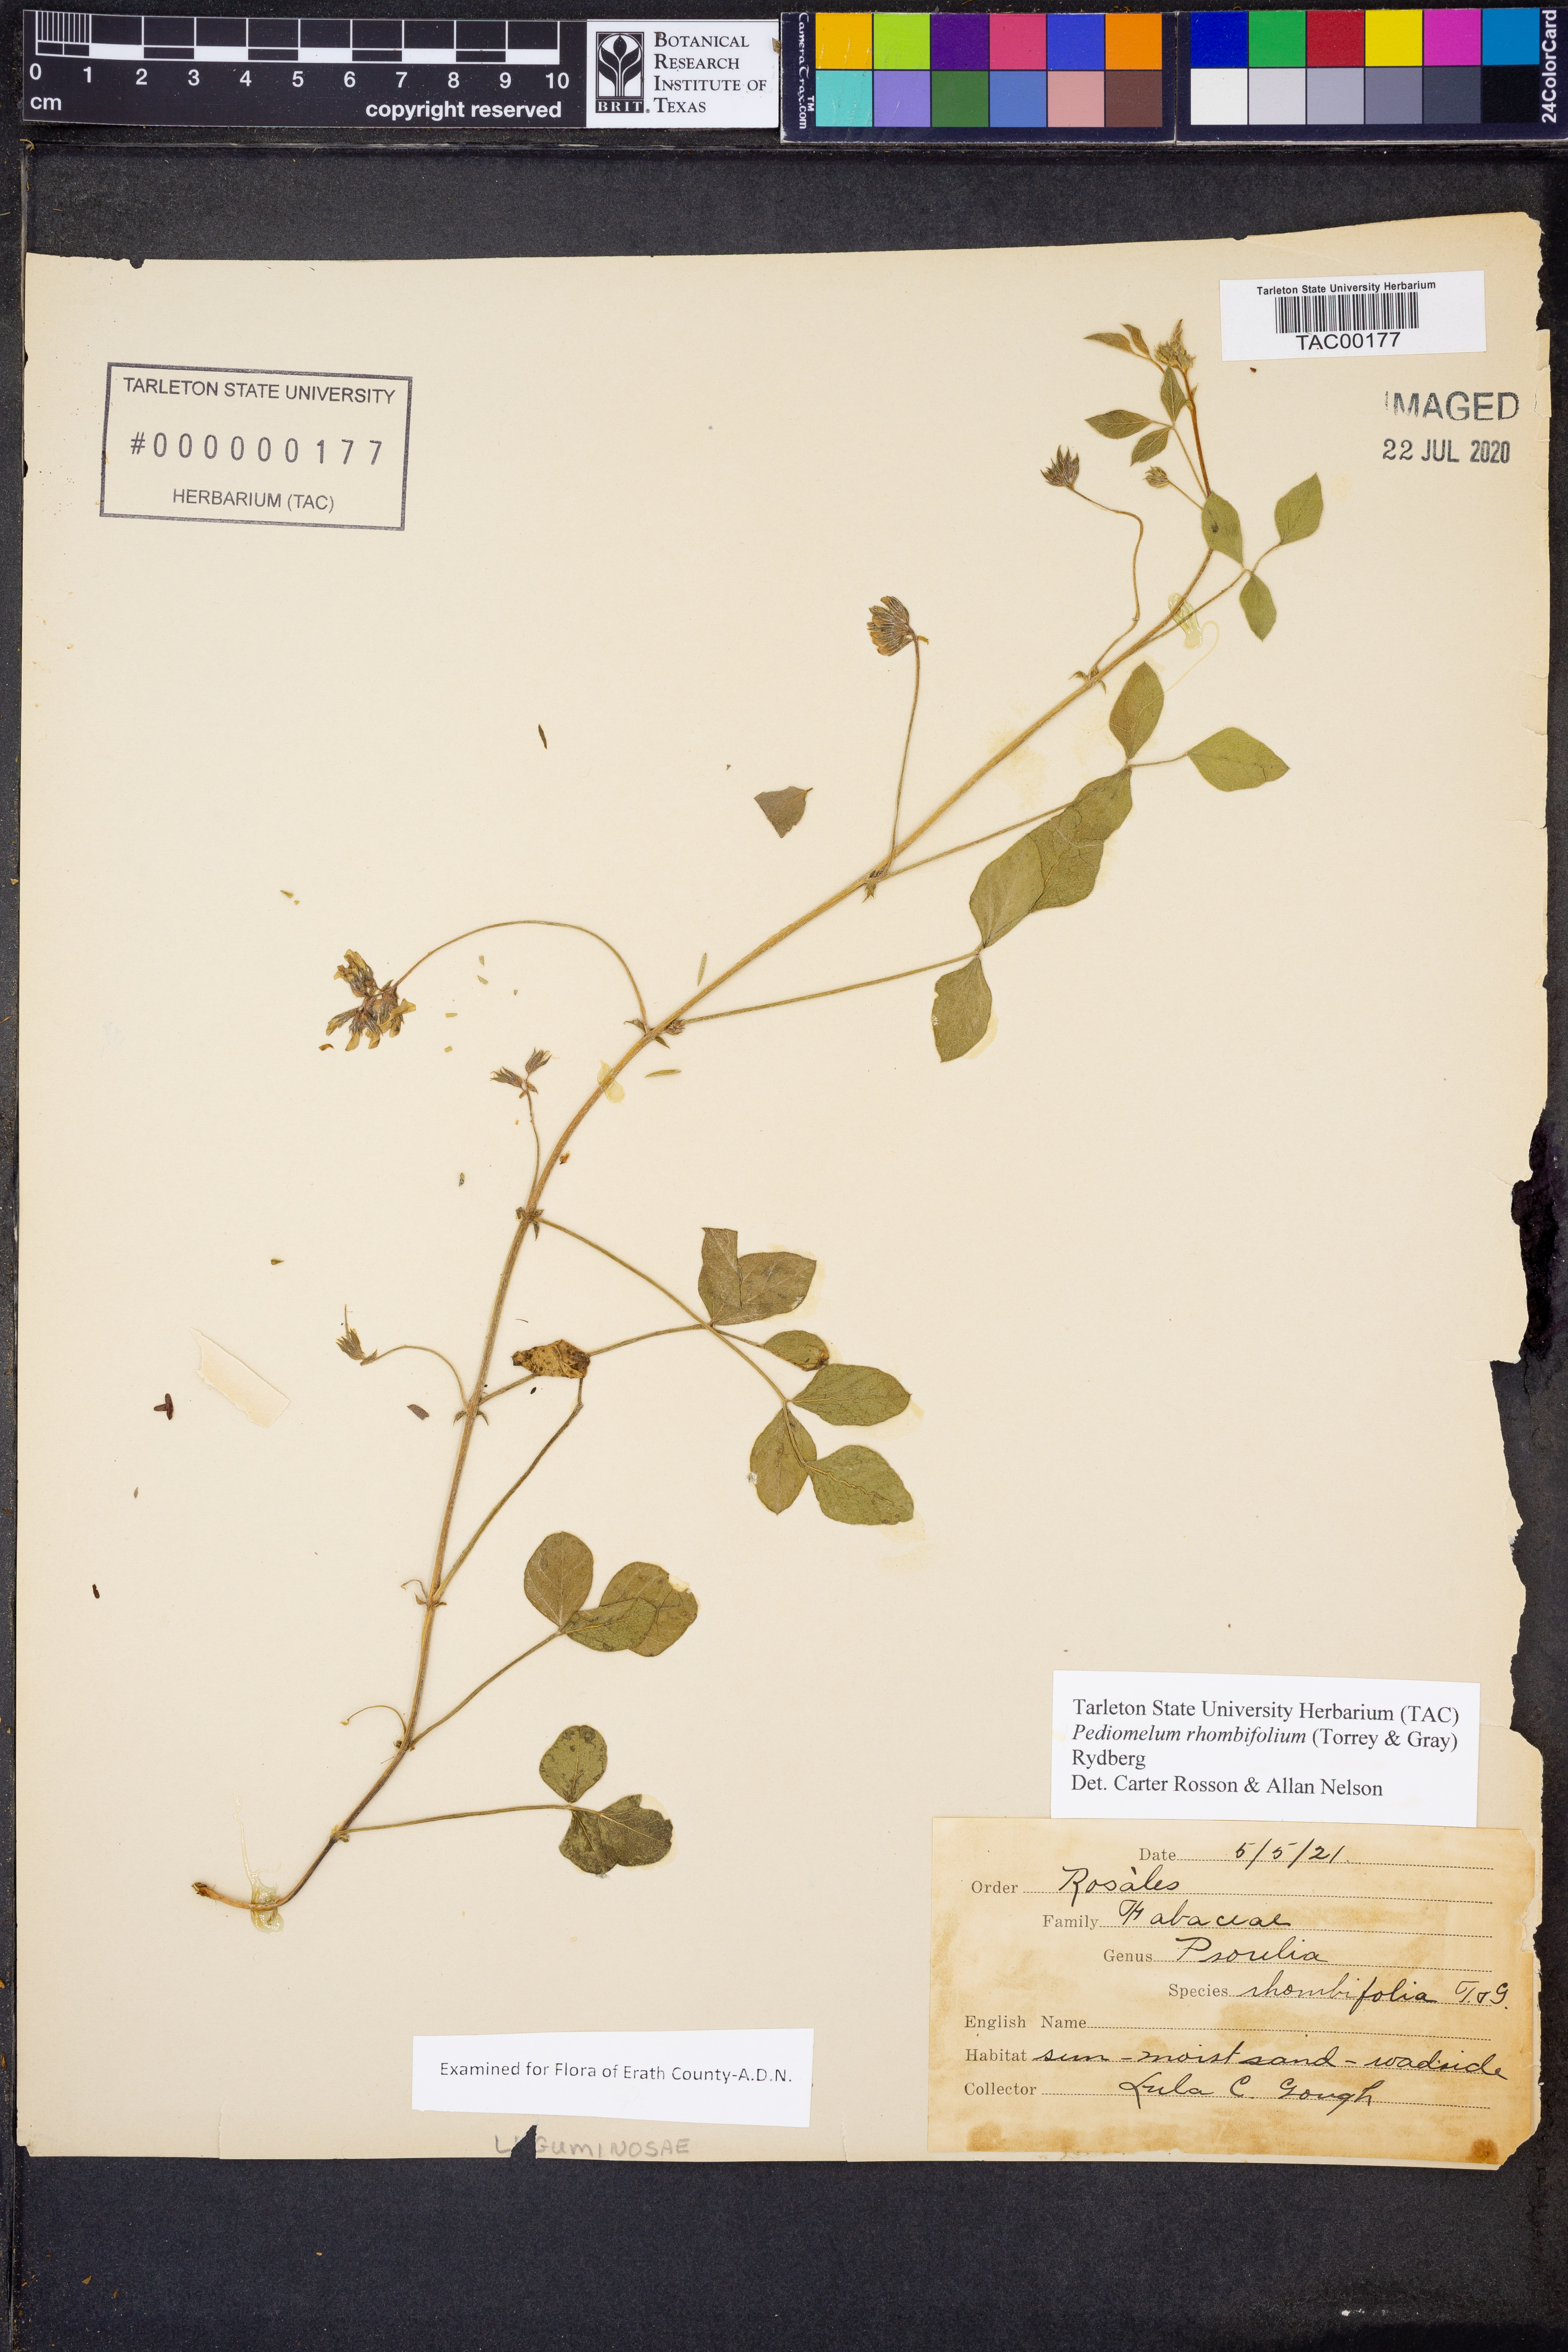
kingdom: Plantae
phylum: Tracheophyta
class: Magnoliopsida
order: Fabales
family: Fabaceae
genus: Pediomelum
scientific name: Pediomelum rhombifolium
